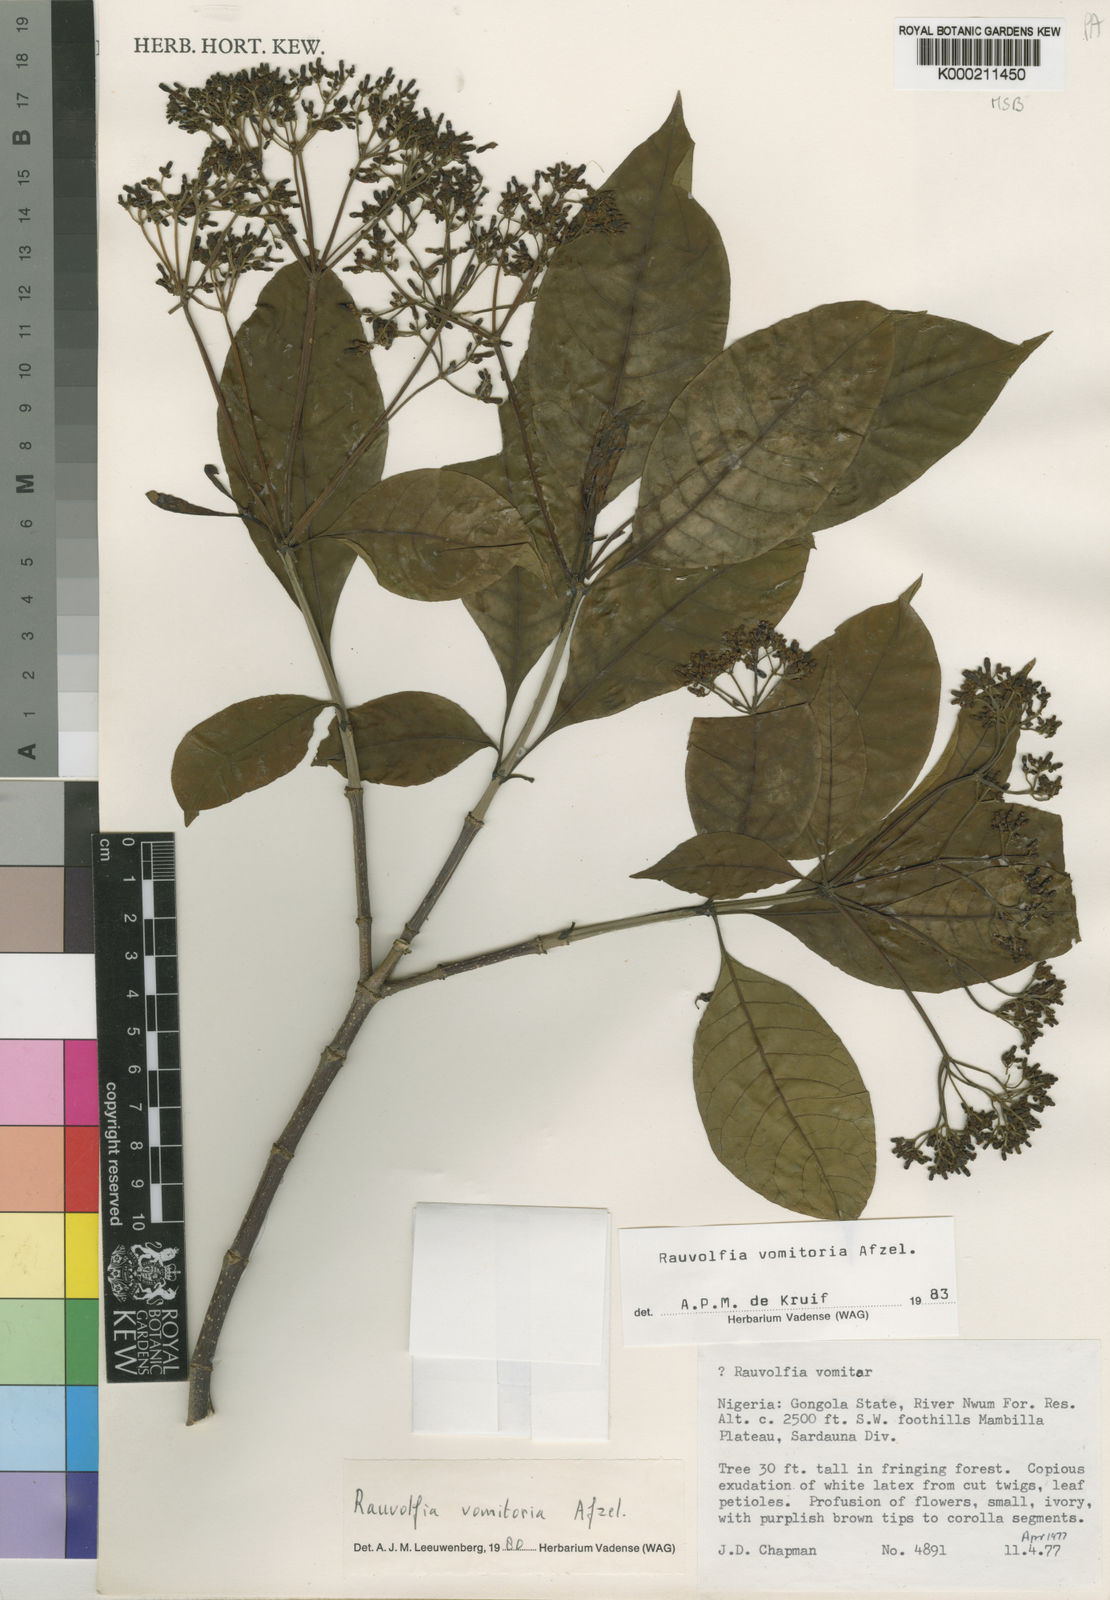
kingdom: Plantae
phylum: Tracheophyta
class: Magnoliopsida
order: Gentianales
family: Apocynaceae
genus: Rauvolfia
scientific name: Rauvolfia
